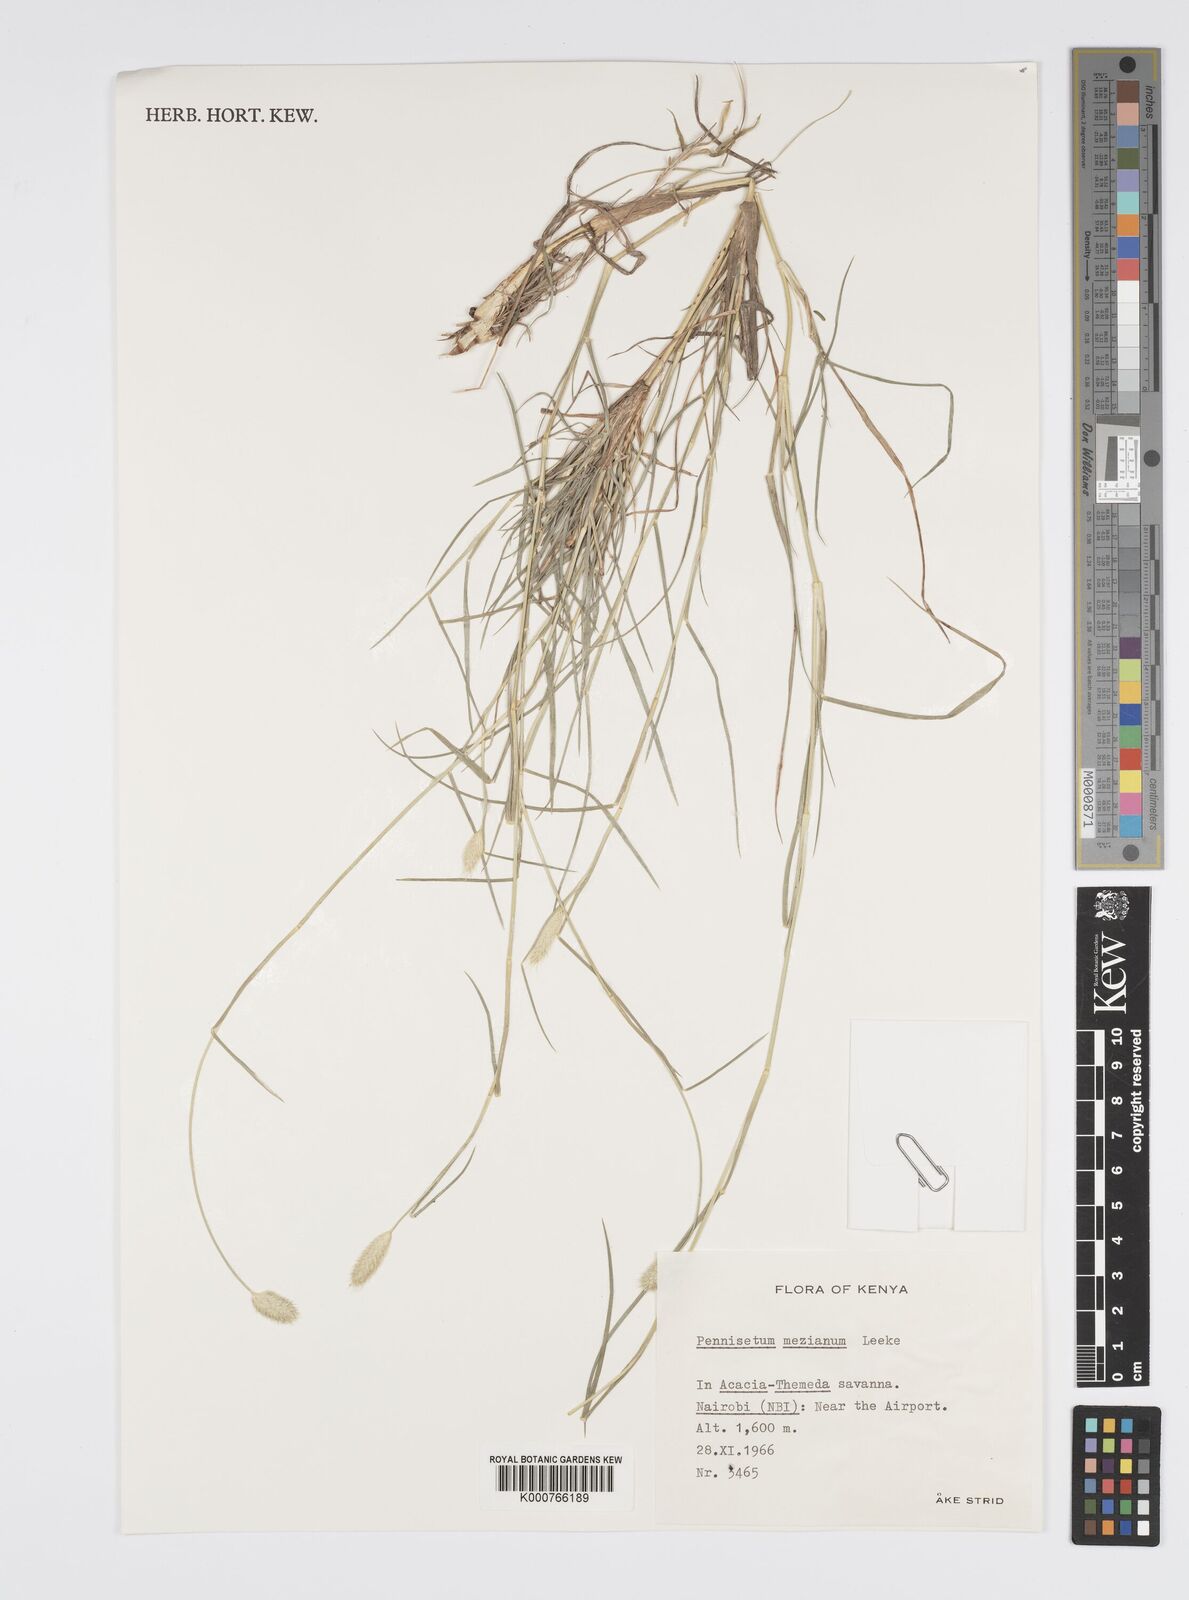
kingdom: Plantae
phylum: Tracheophyta
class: Liliopsida
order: Poales
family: Poaceae
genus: Cenchrus
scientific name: Cenchrus mezianus
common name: Bamboo grass
